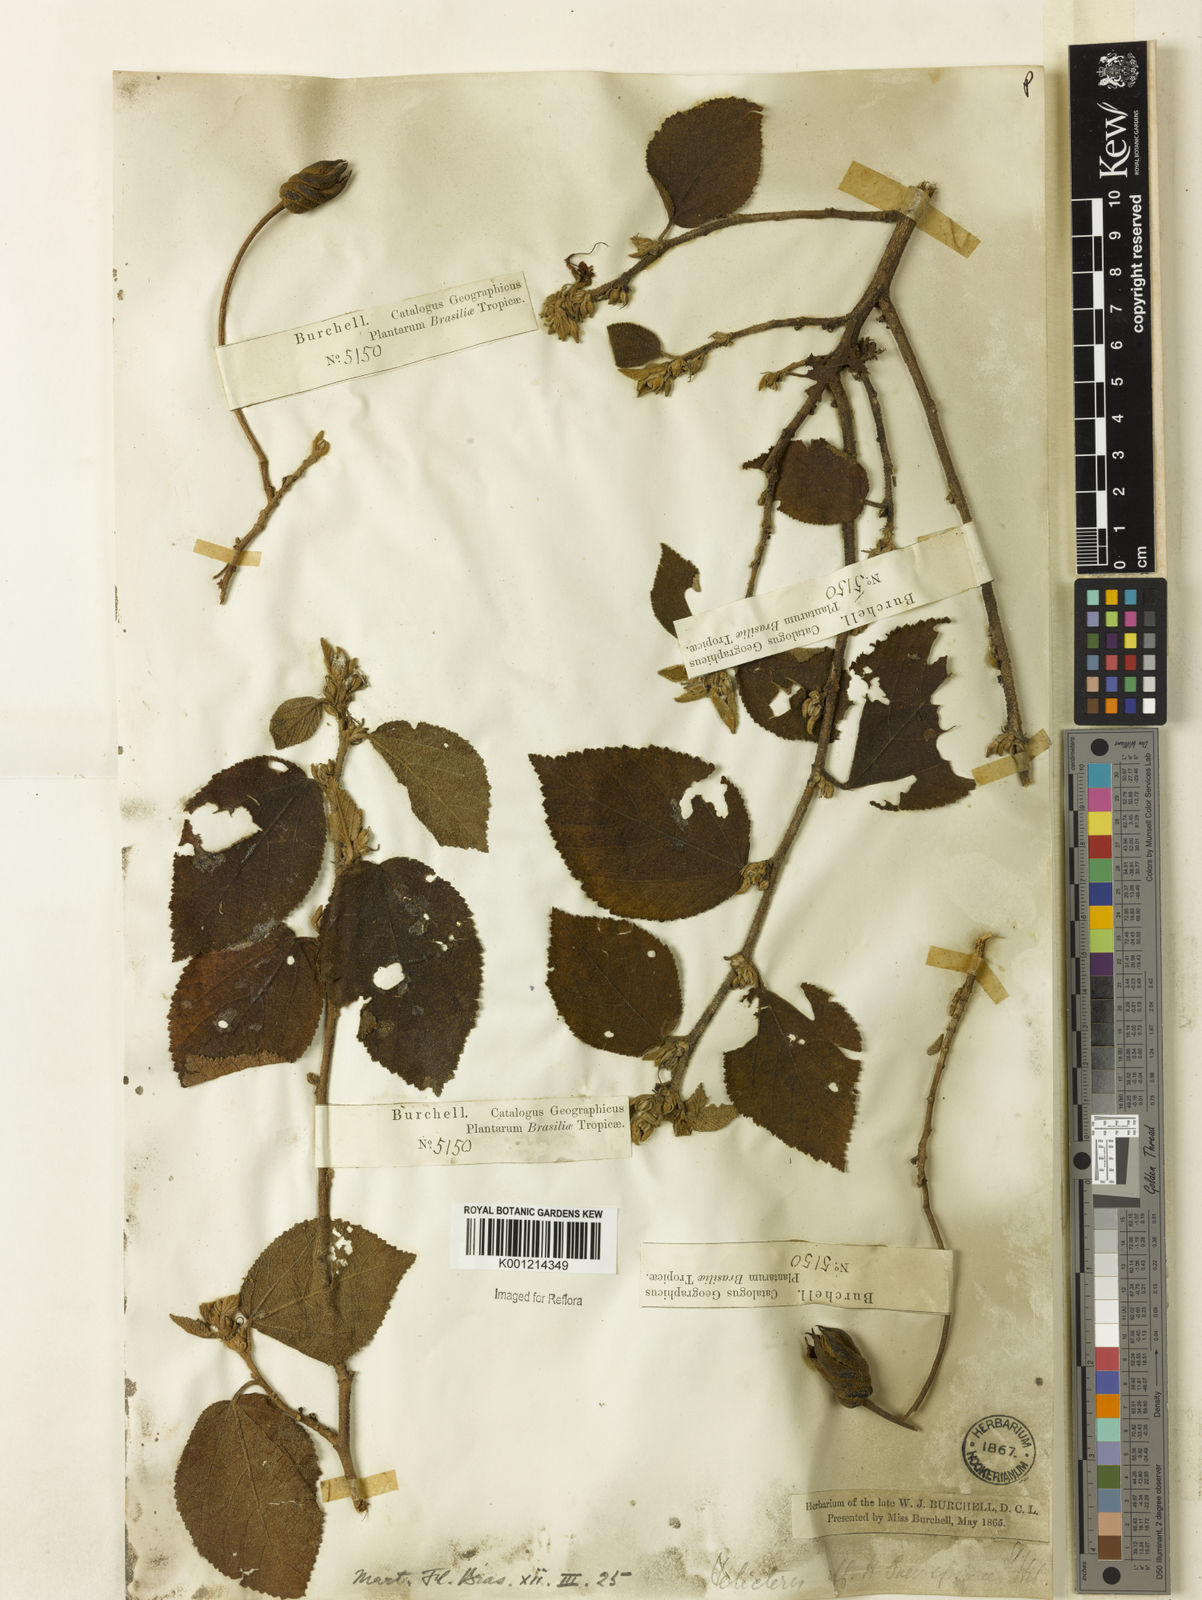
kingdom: Plantae
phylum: Tracheophyta
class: Magnoliopsida
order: Malvales
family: Malvaceae
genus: Helicteres
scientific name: Helicteres
